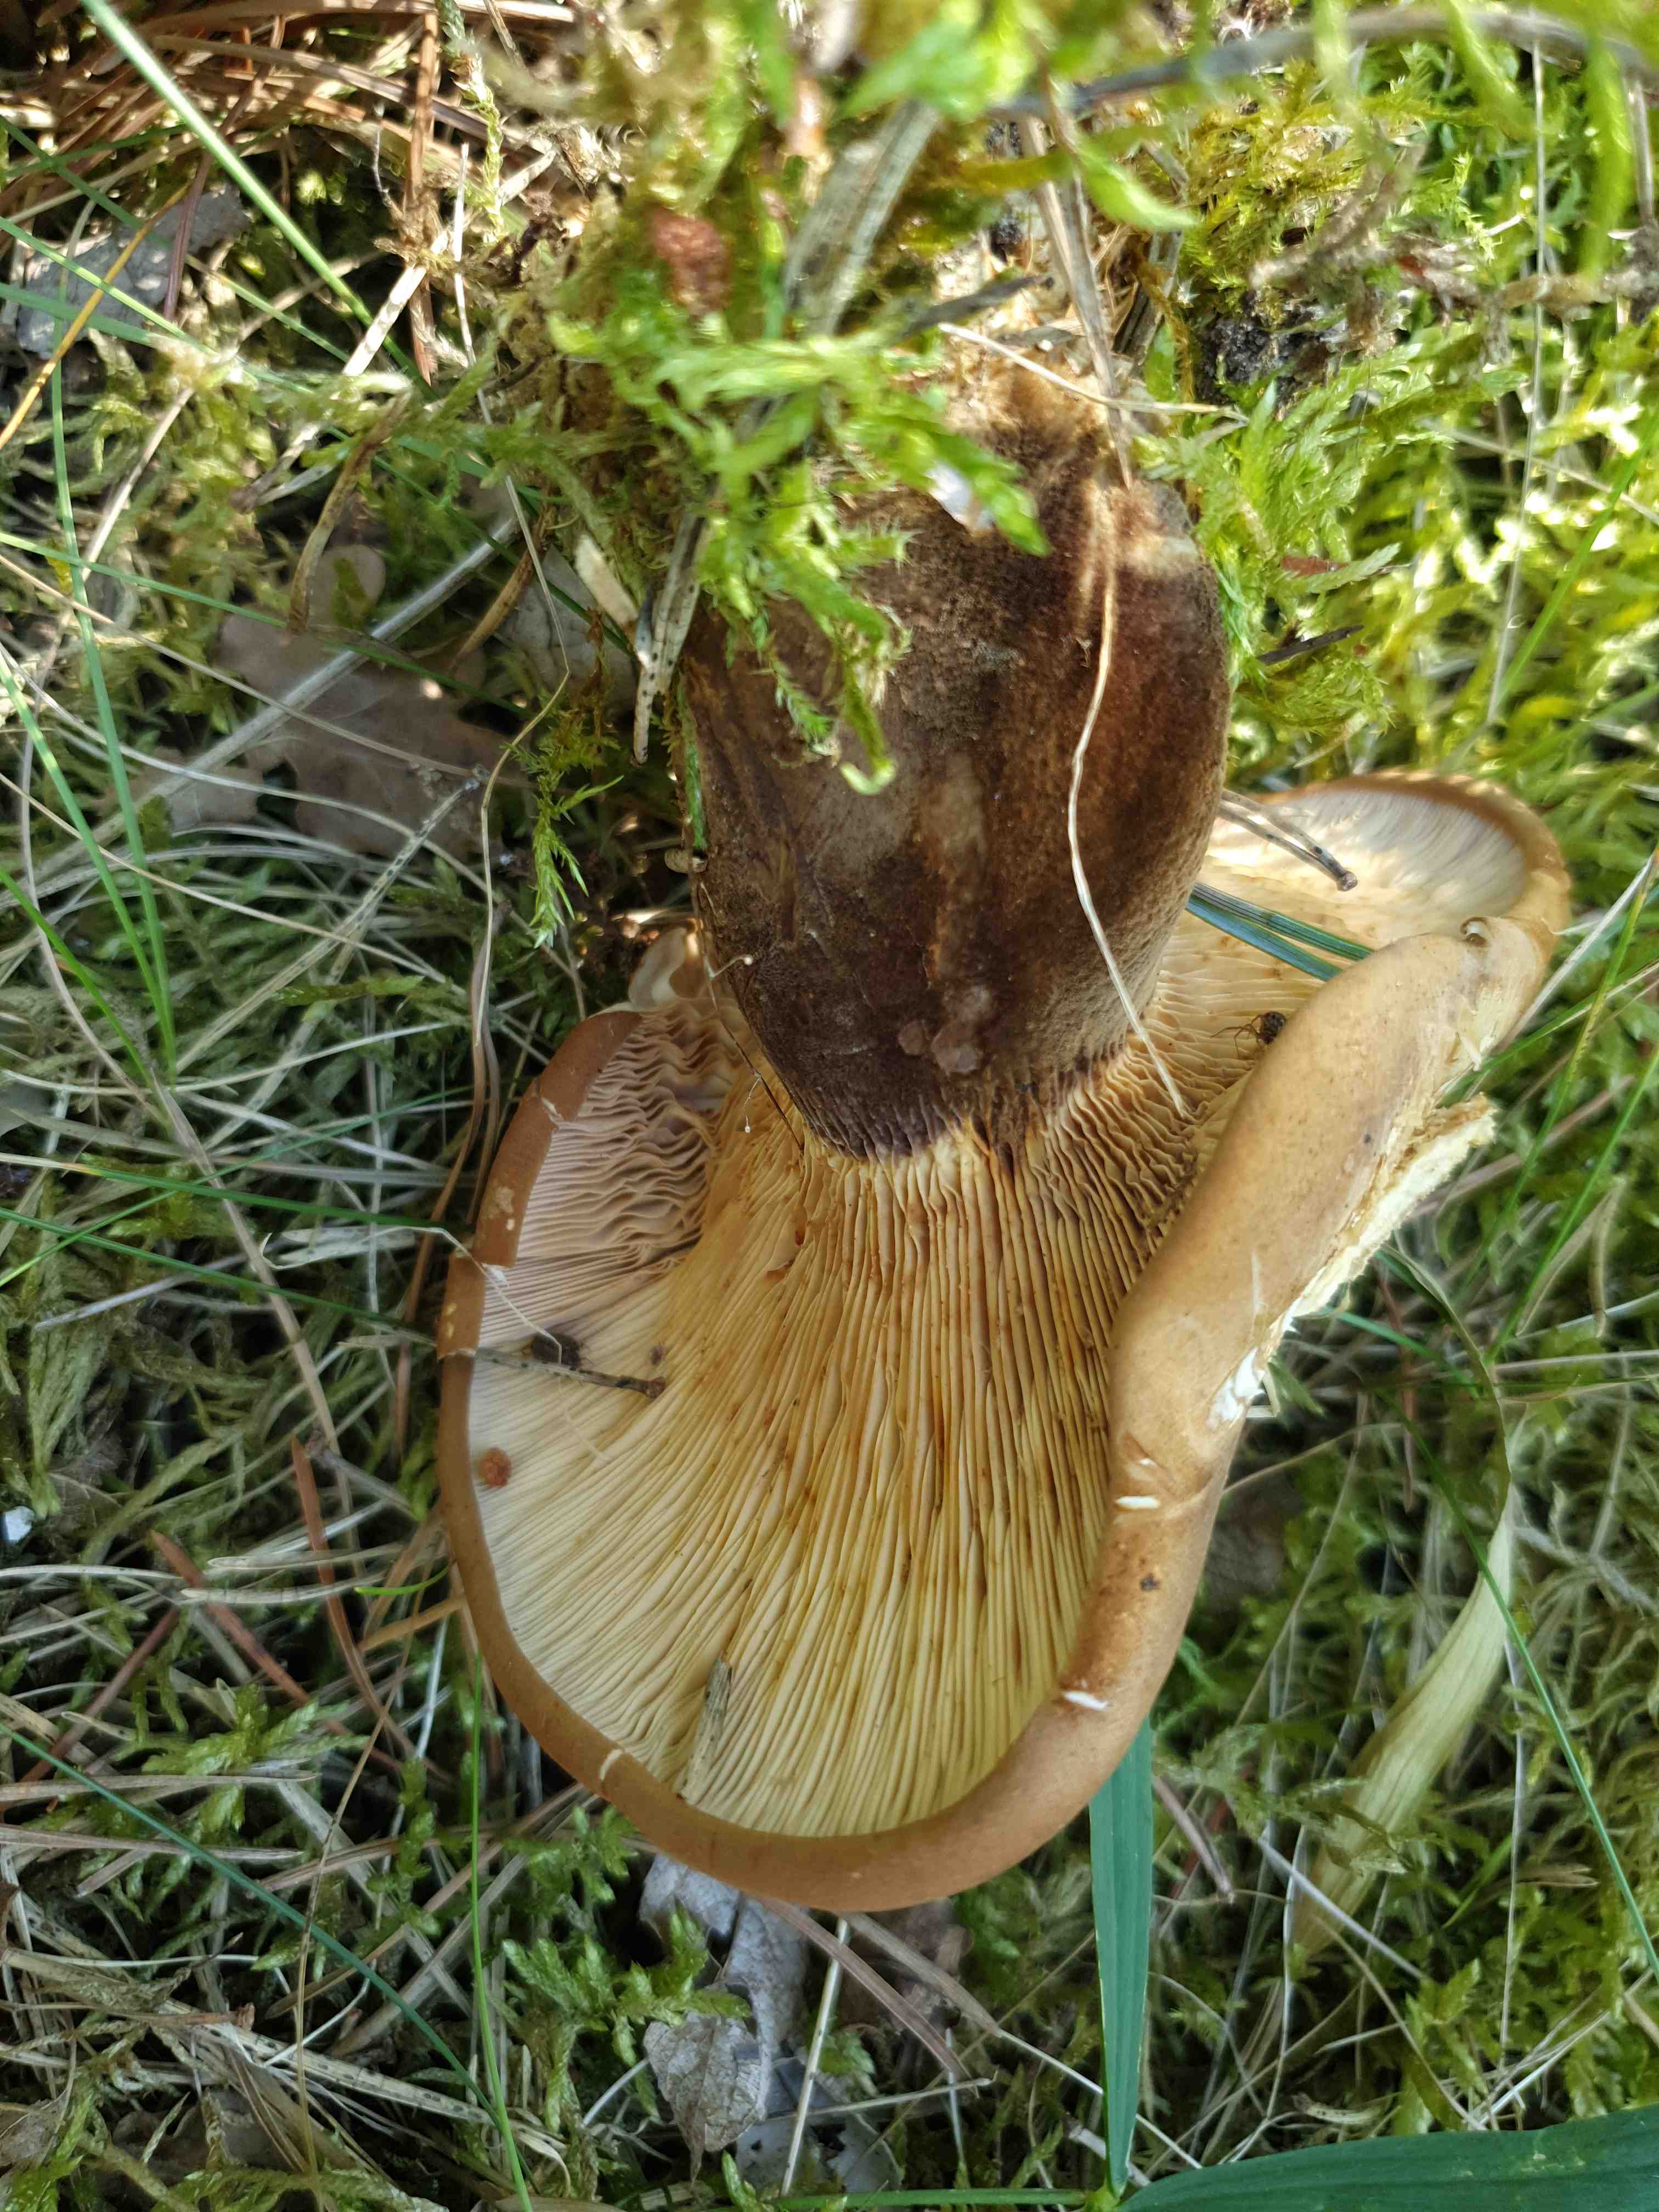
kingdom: Fungi
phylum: Basidiomycota
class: Agaricomycetes
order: Boletales
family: Tapinellaceae
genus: Tapinella
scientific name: Tapinella atrotomentosa
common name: sortfiltet viftesvamp
